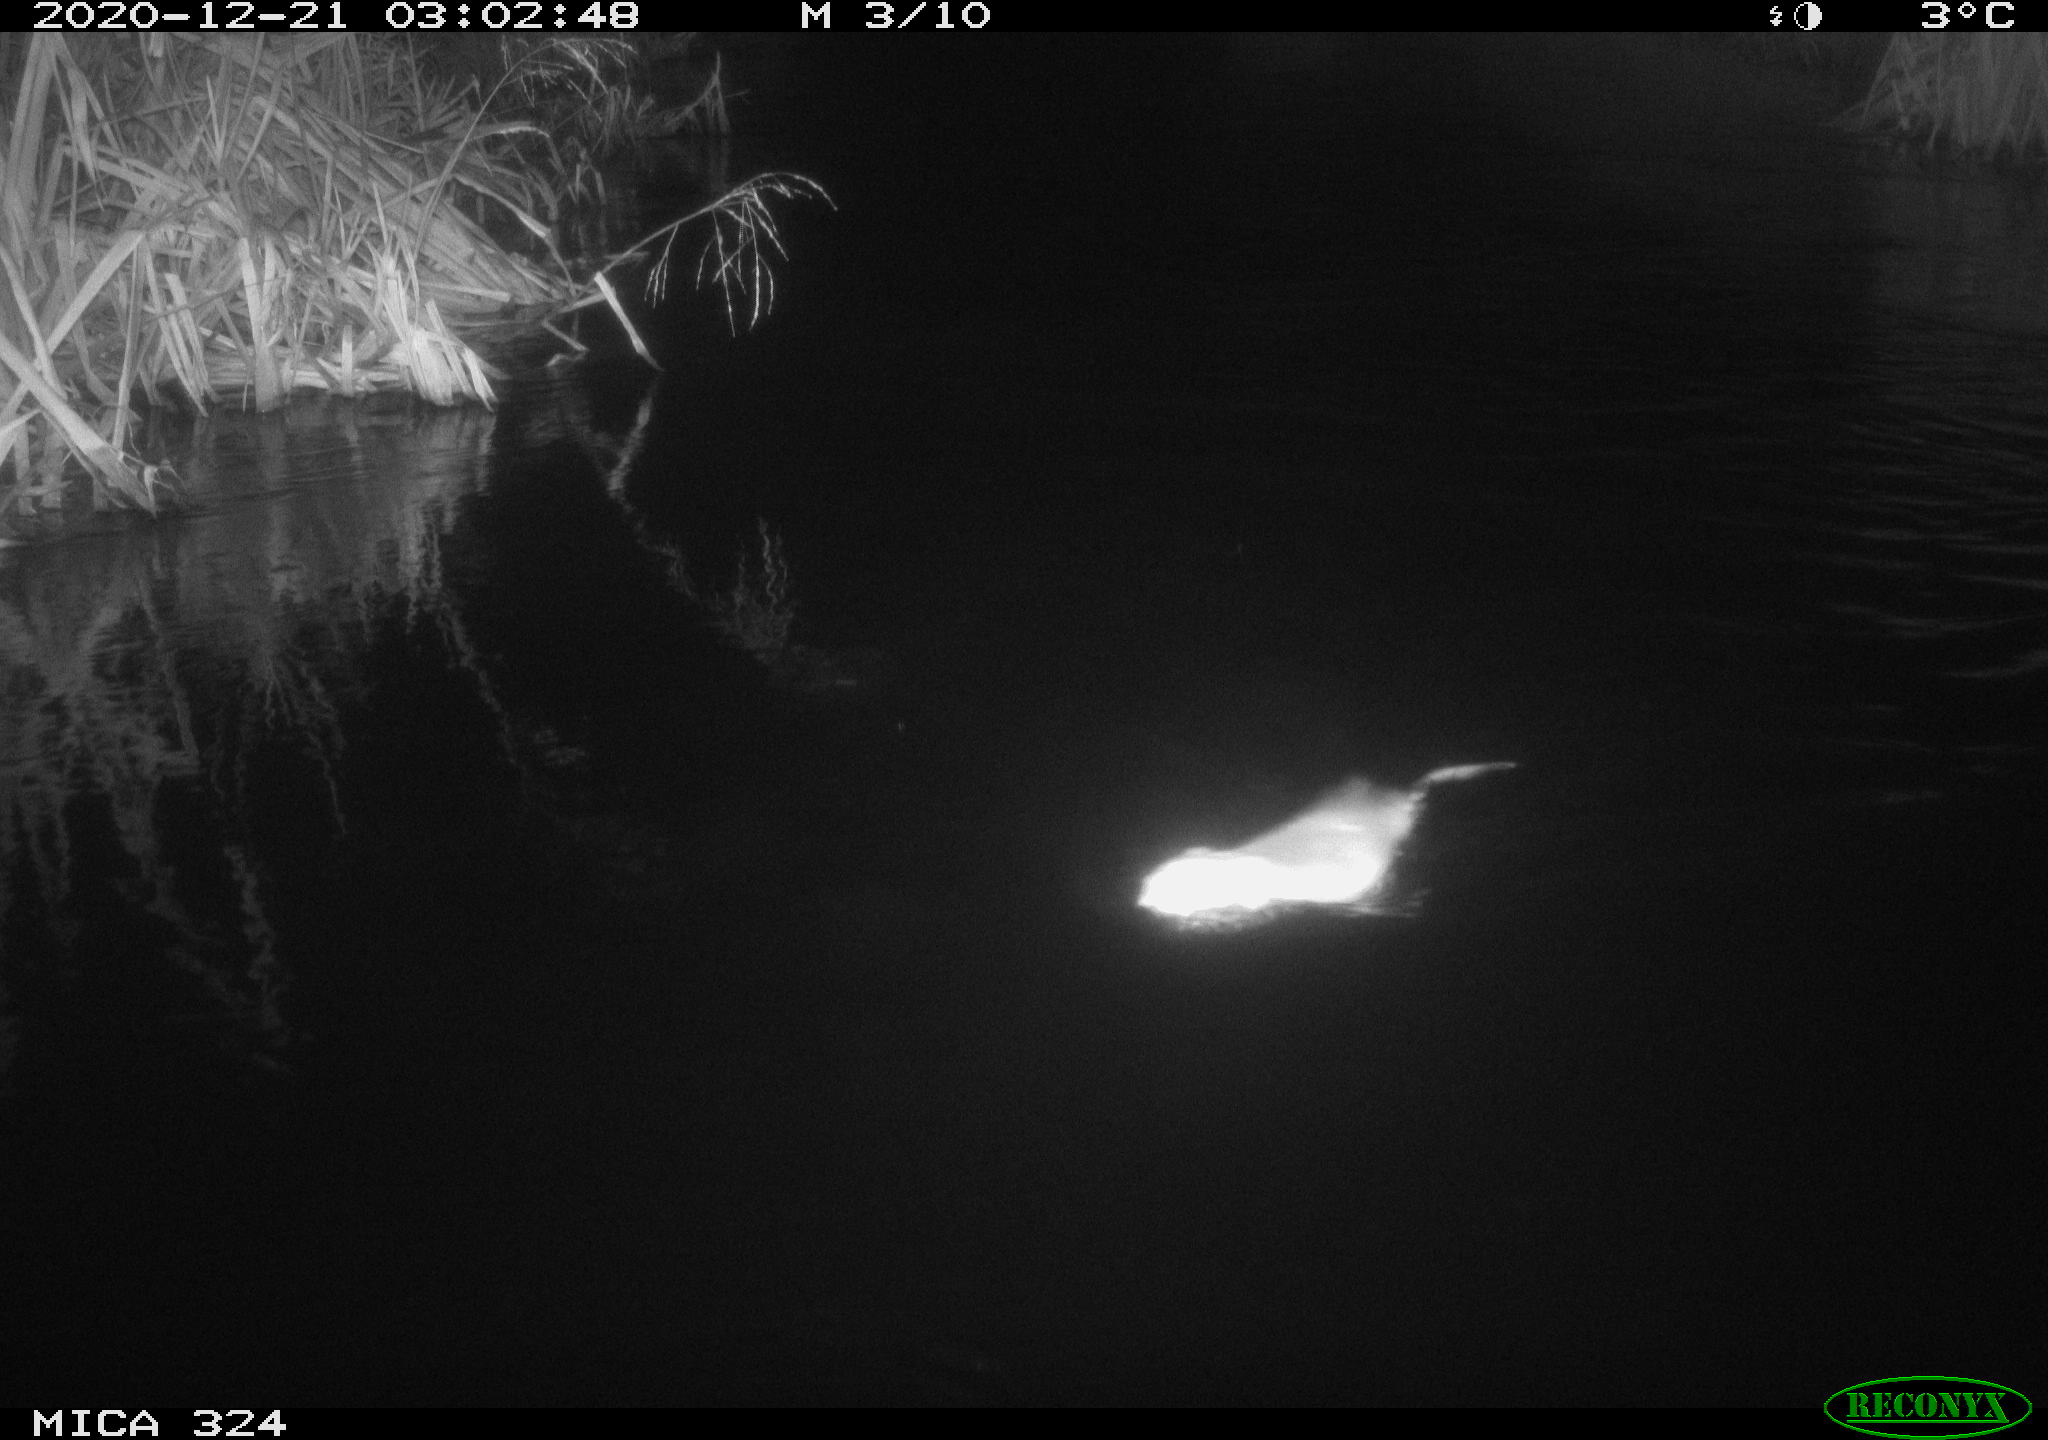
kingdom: Animalia
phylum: Chordata
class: Mammalia
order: Rodentia
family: Cricetidae
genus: Ondatra
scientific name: Ondatra zibethicus
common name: Muskrat
